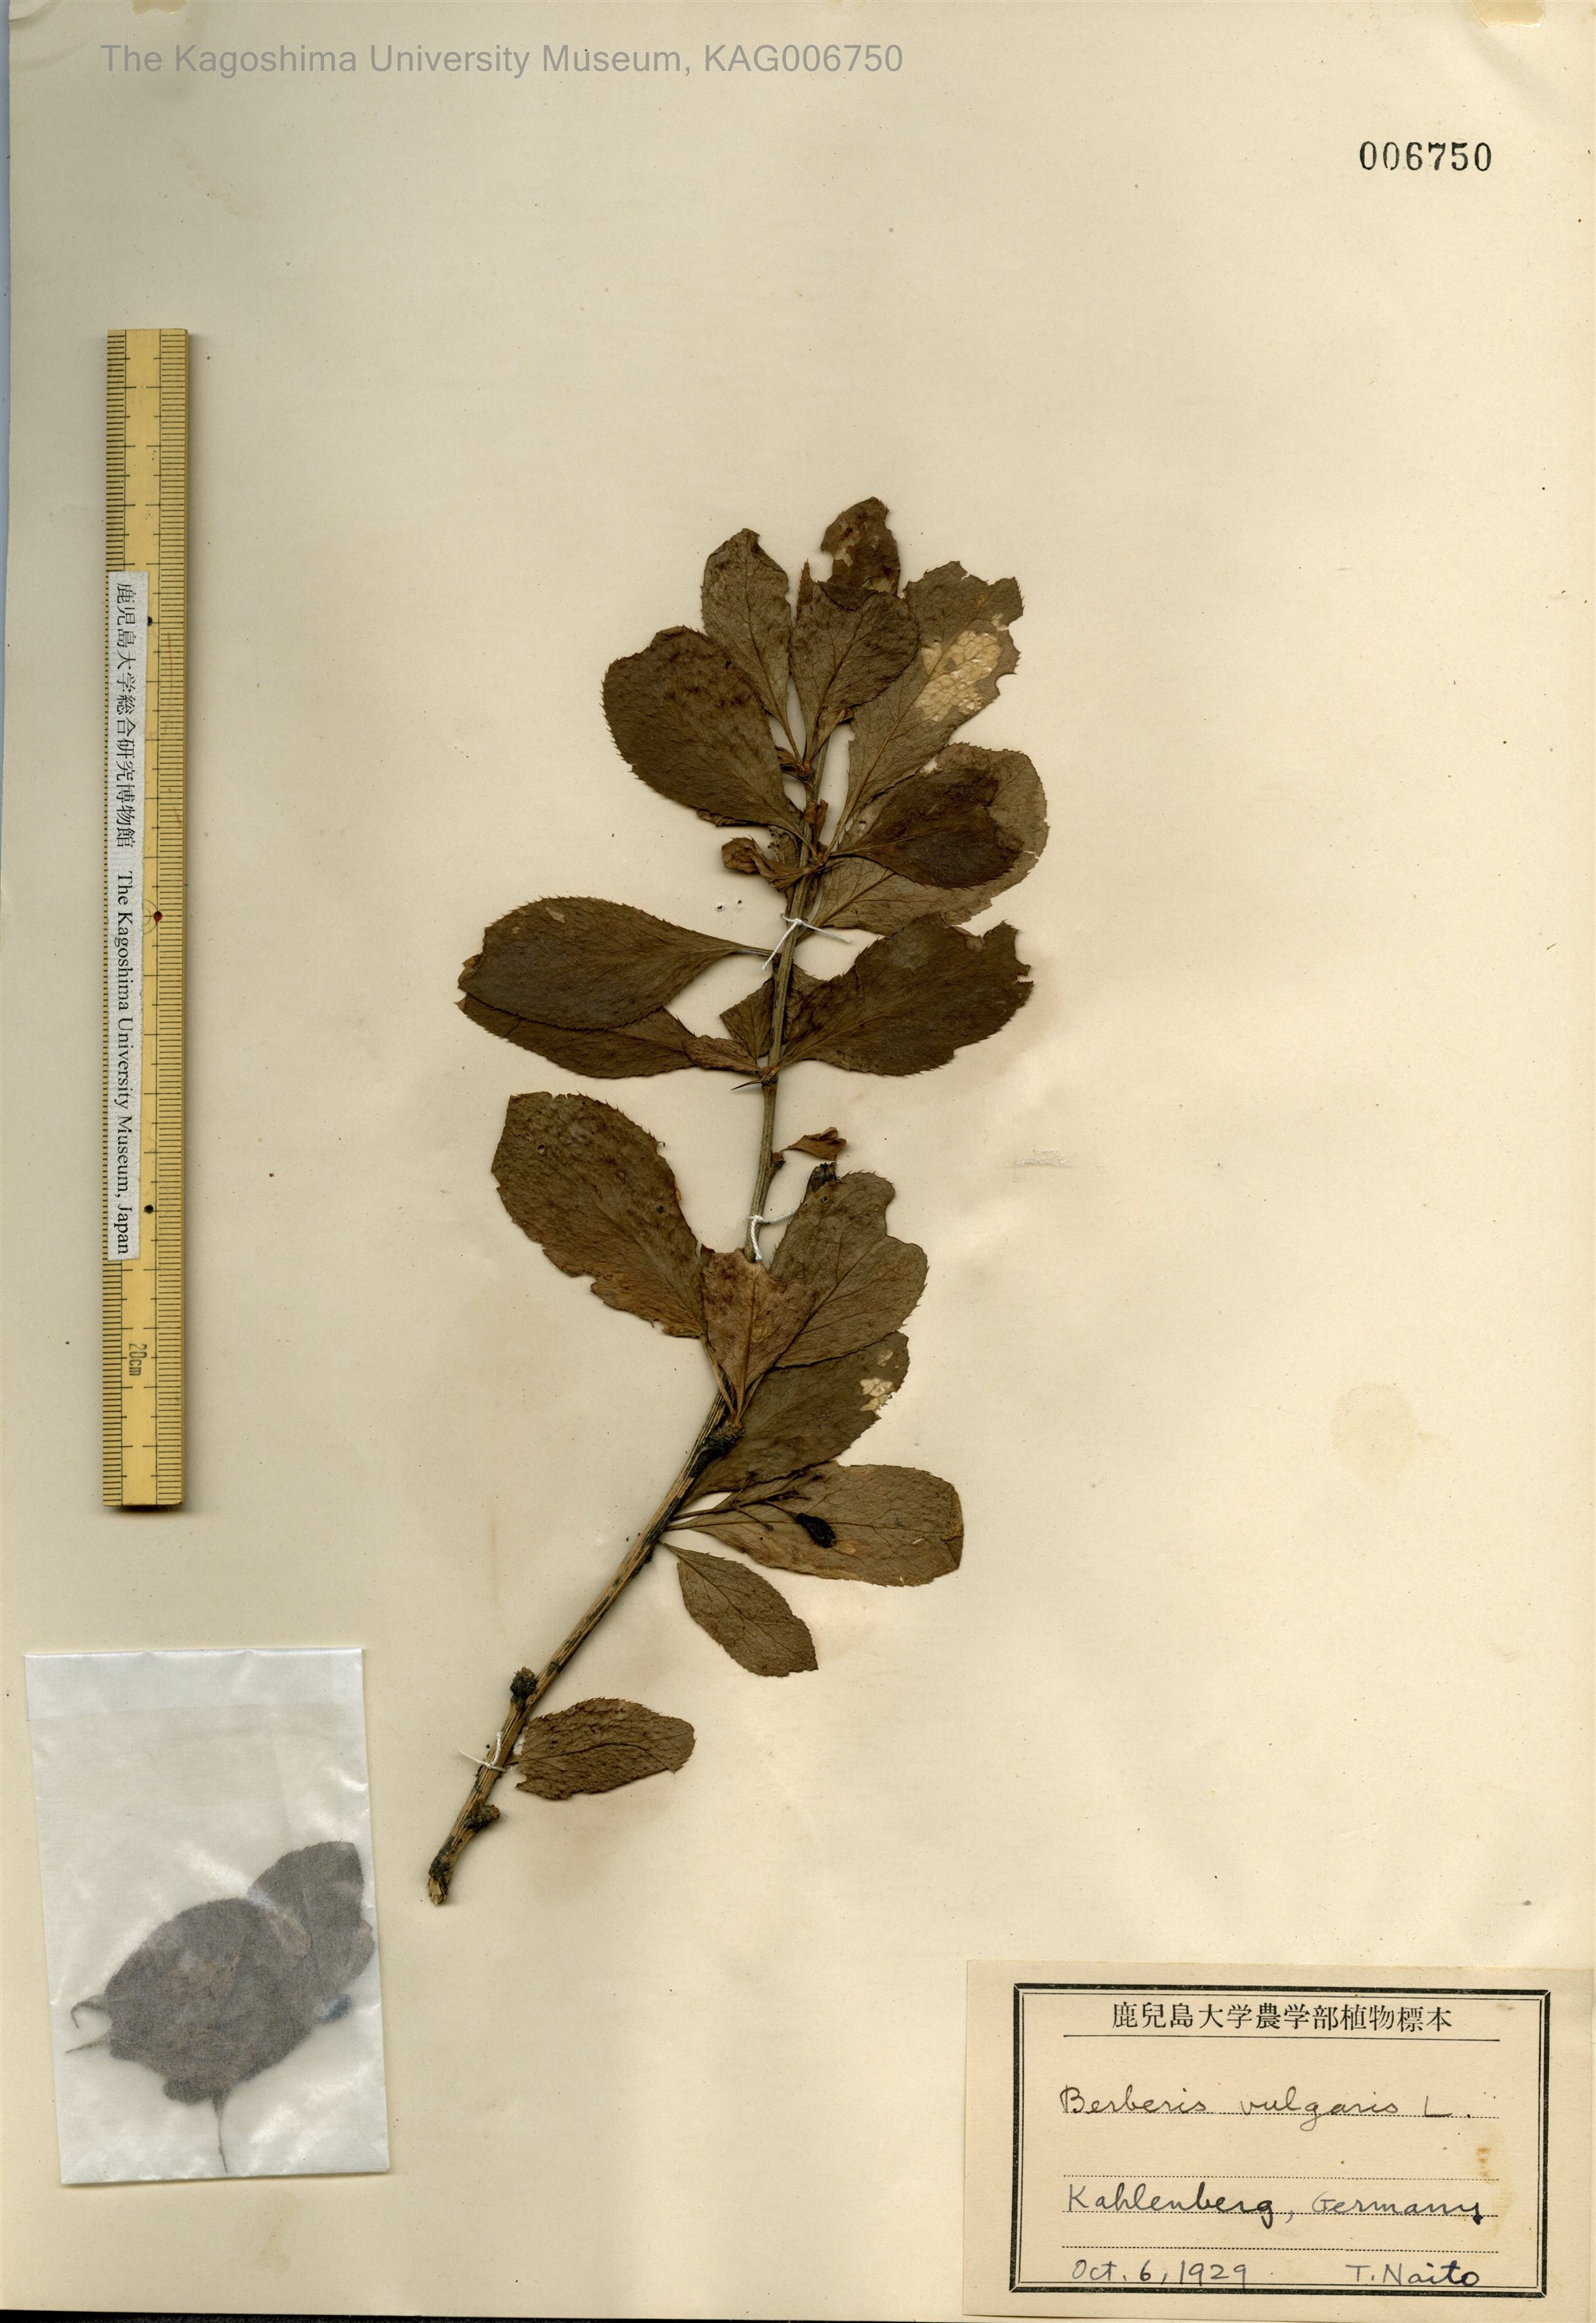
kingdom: Plantae
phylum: Tracheophyta
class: Magnoliopsida
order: Ranunculales
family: Berberidaceae
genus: Berberis
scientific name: Berberis vulgaris
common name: Barberry
